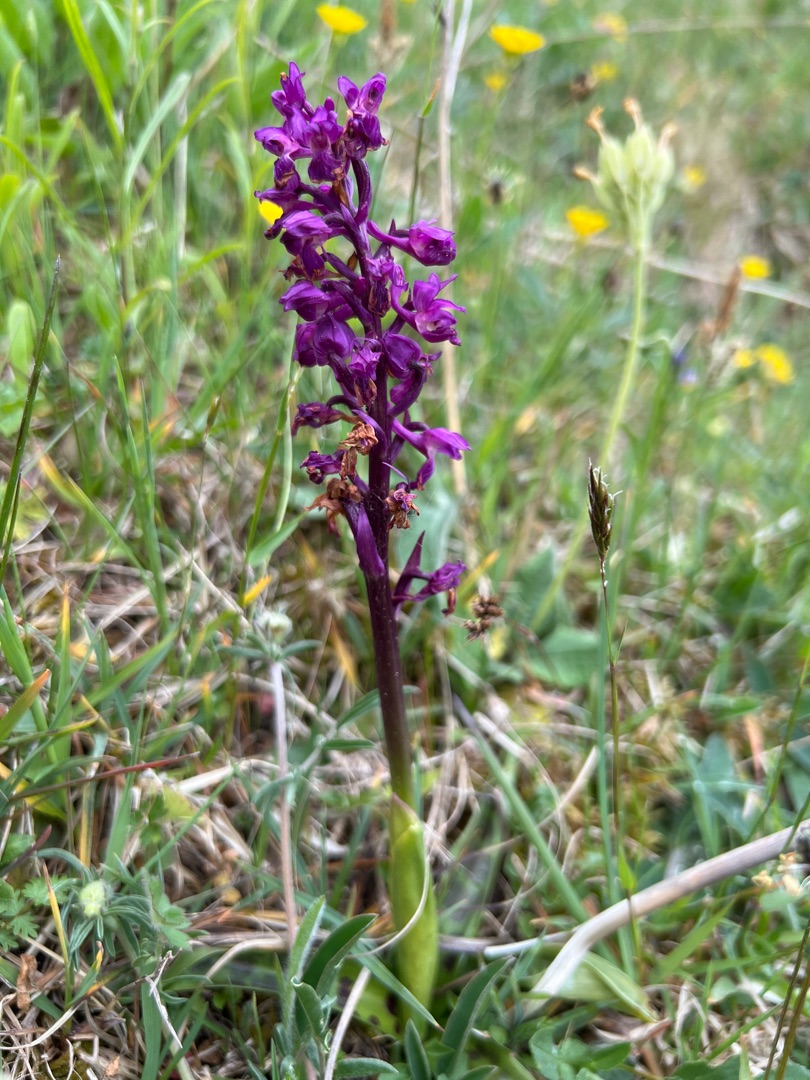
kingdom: Plantae
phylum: Tracheophyta
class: Liliopsida
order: Asparagales
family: Orchidaceae
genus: Orchis
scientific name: Orchis mascula
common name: Tyndakset gøgeurt
